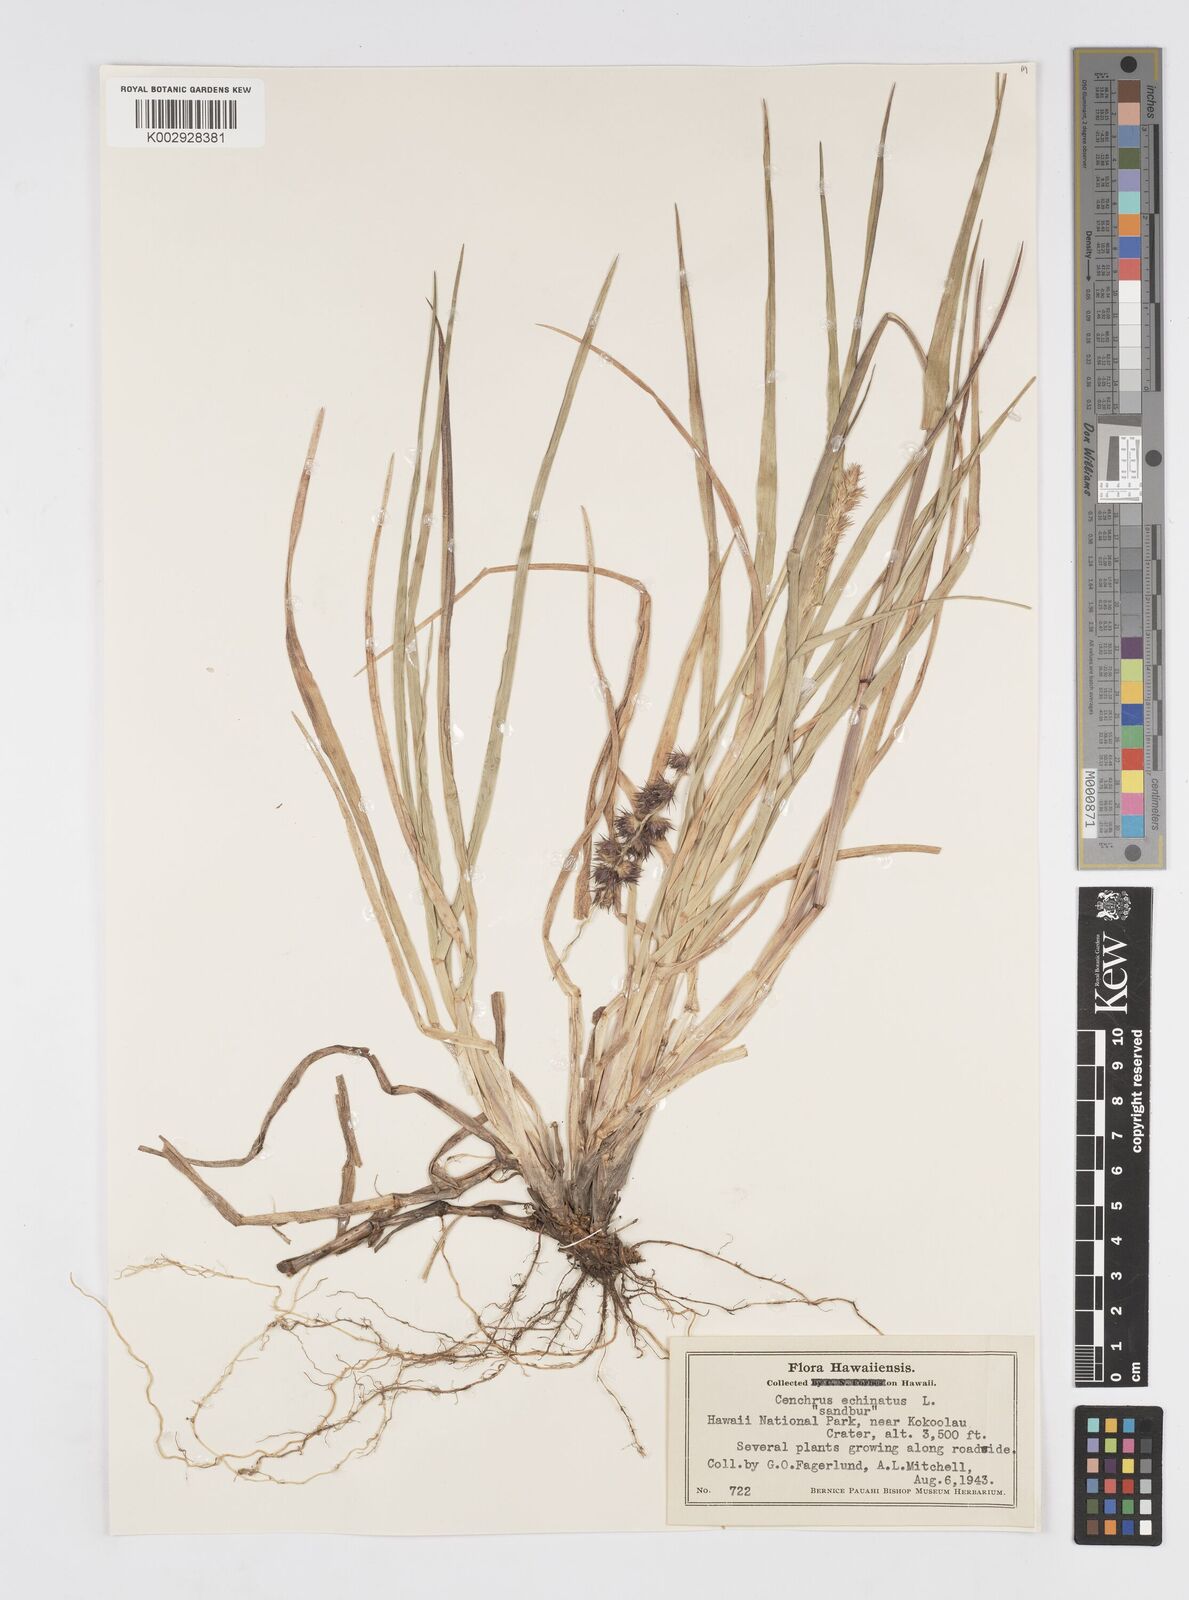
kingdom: Plantae
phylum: Tracheophyta
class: Liliopsida
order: Poales
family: Poaceae
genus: Cenchrus
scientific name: Cenchrus echinatus
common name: Southern sandbur
